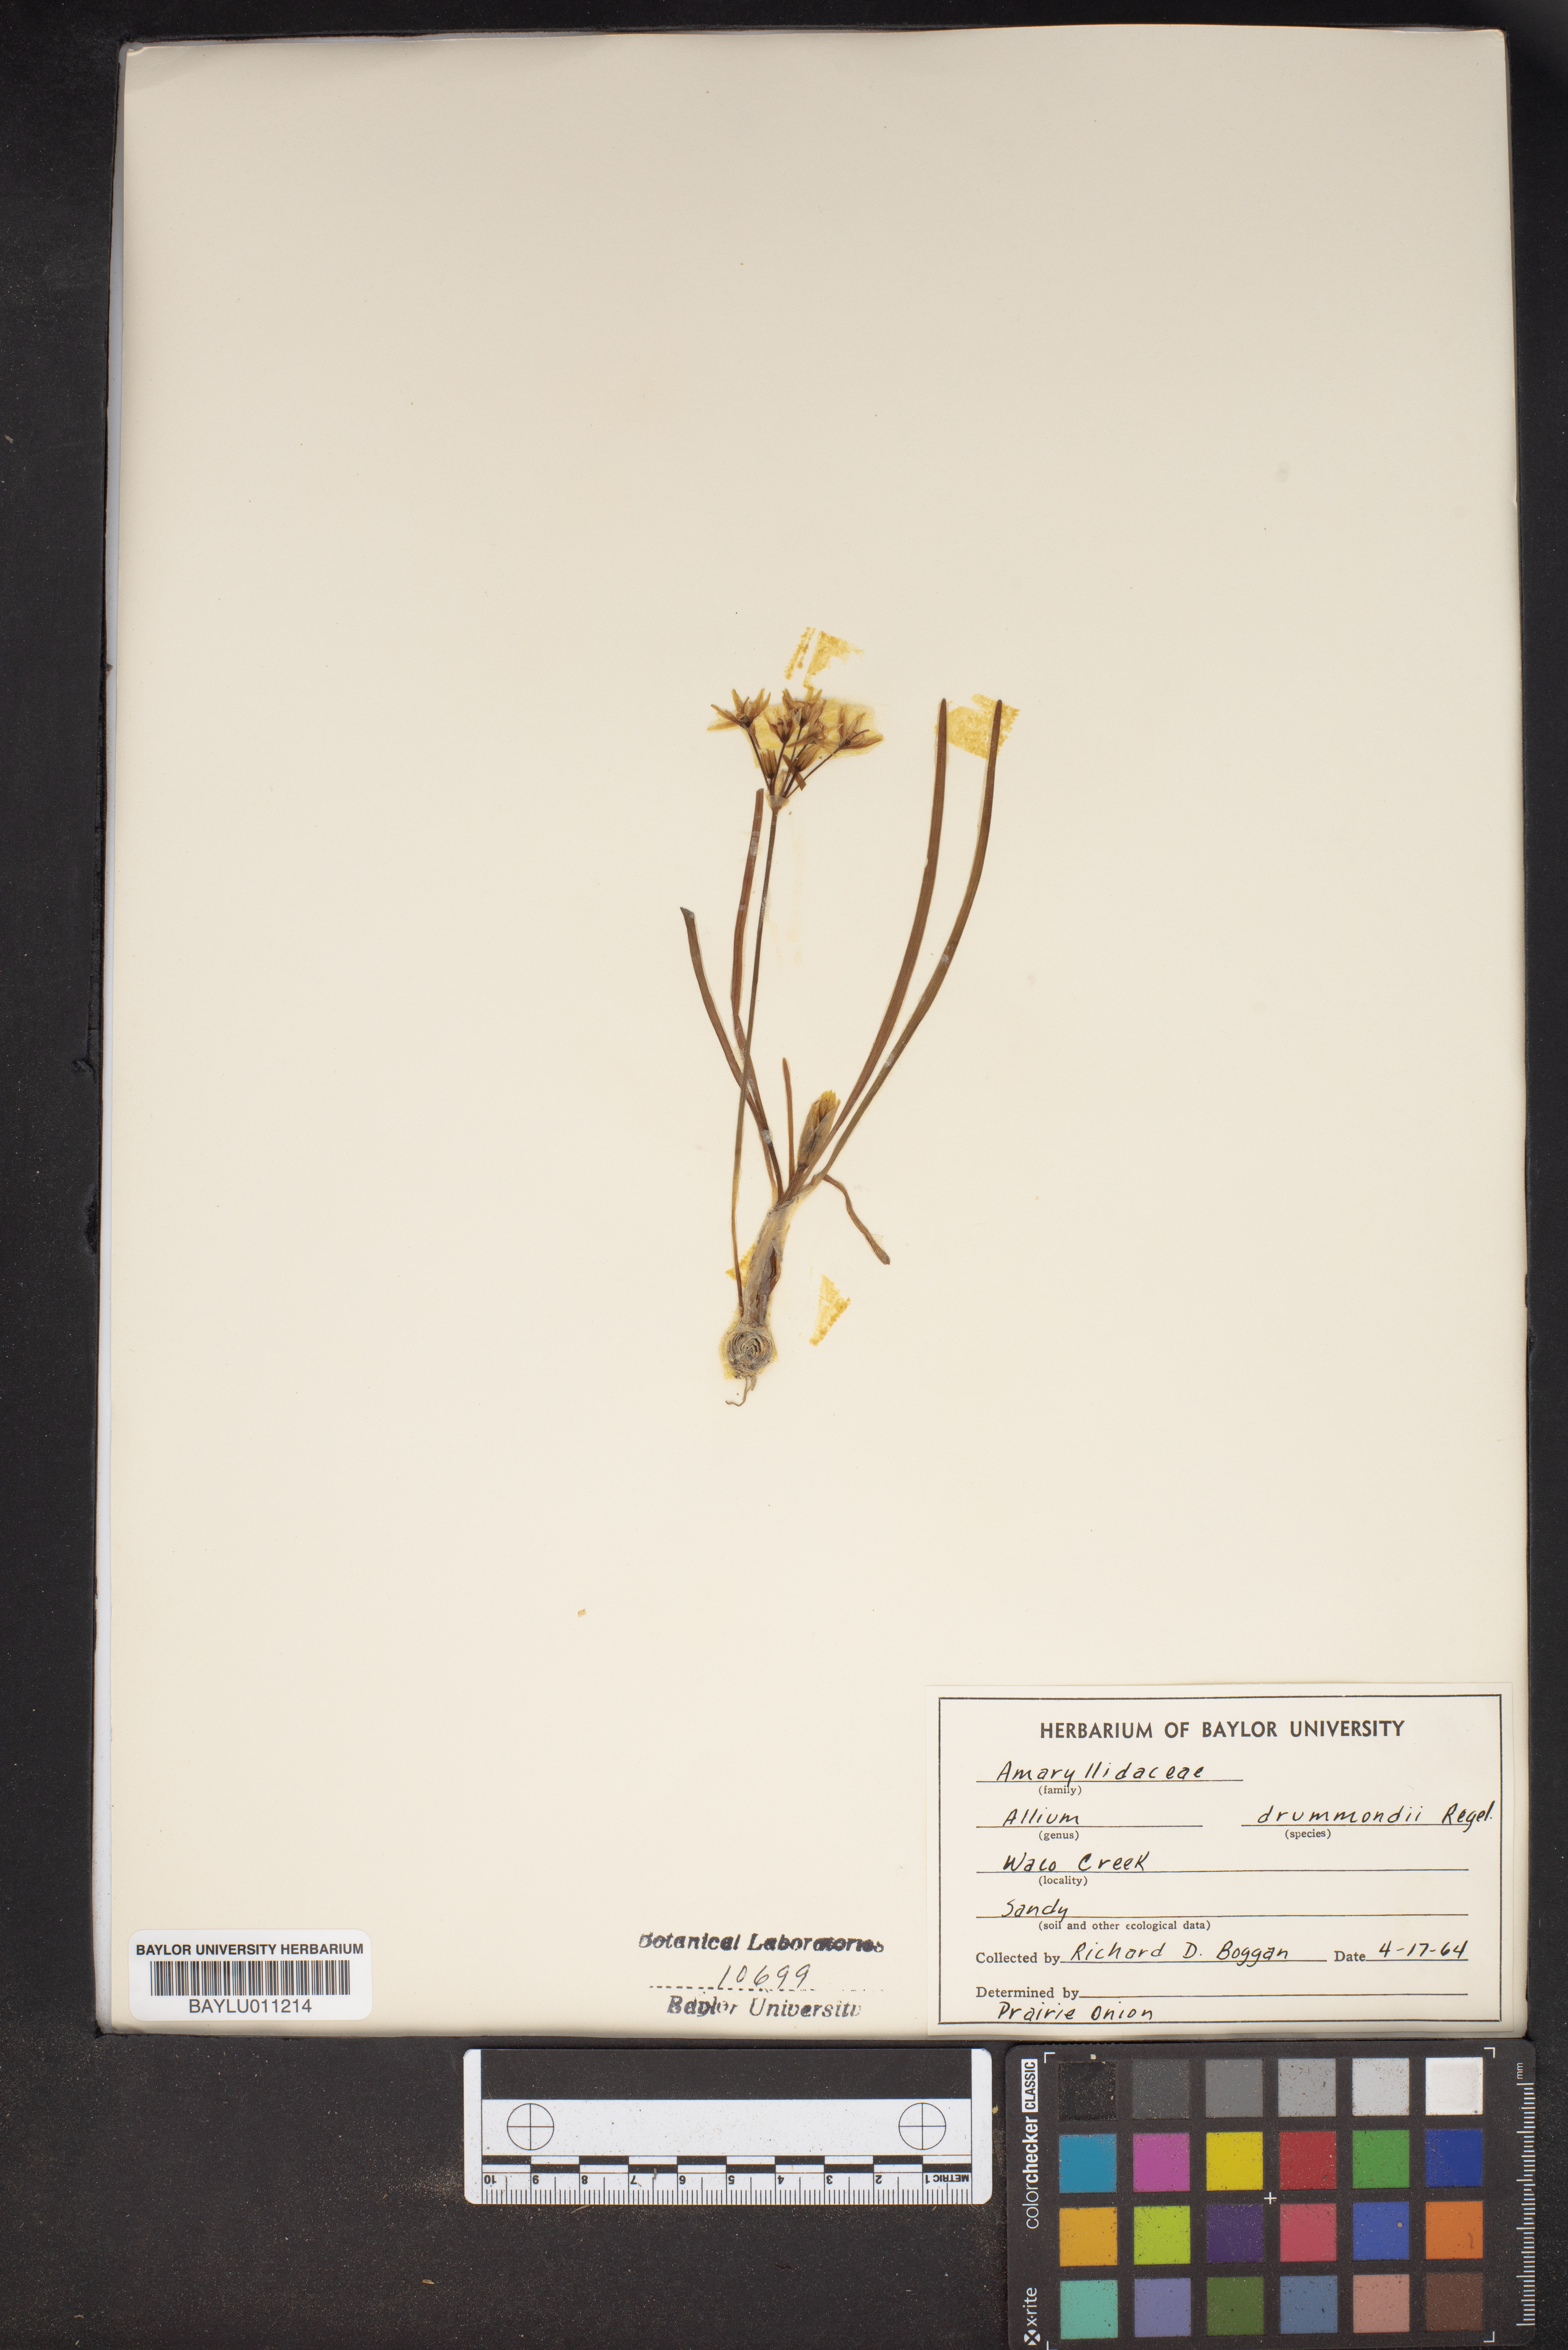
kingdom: Plantae
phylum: Tracheophyta
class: Liliopsida
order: Asparagales
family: Amaryllidaceae
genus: Allium
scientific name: Allium drummondii
